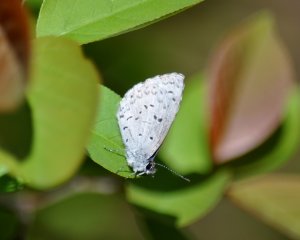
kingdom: Animalia
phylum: Arthropoda
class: Insecta
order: Lepidoptera
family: Lycaenidae
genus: Celastrina
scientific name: Celastrina ladon
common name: Spring Azure
